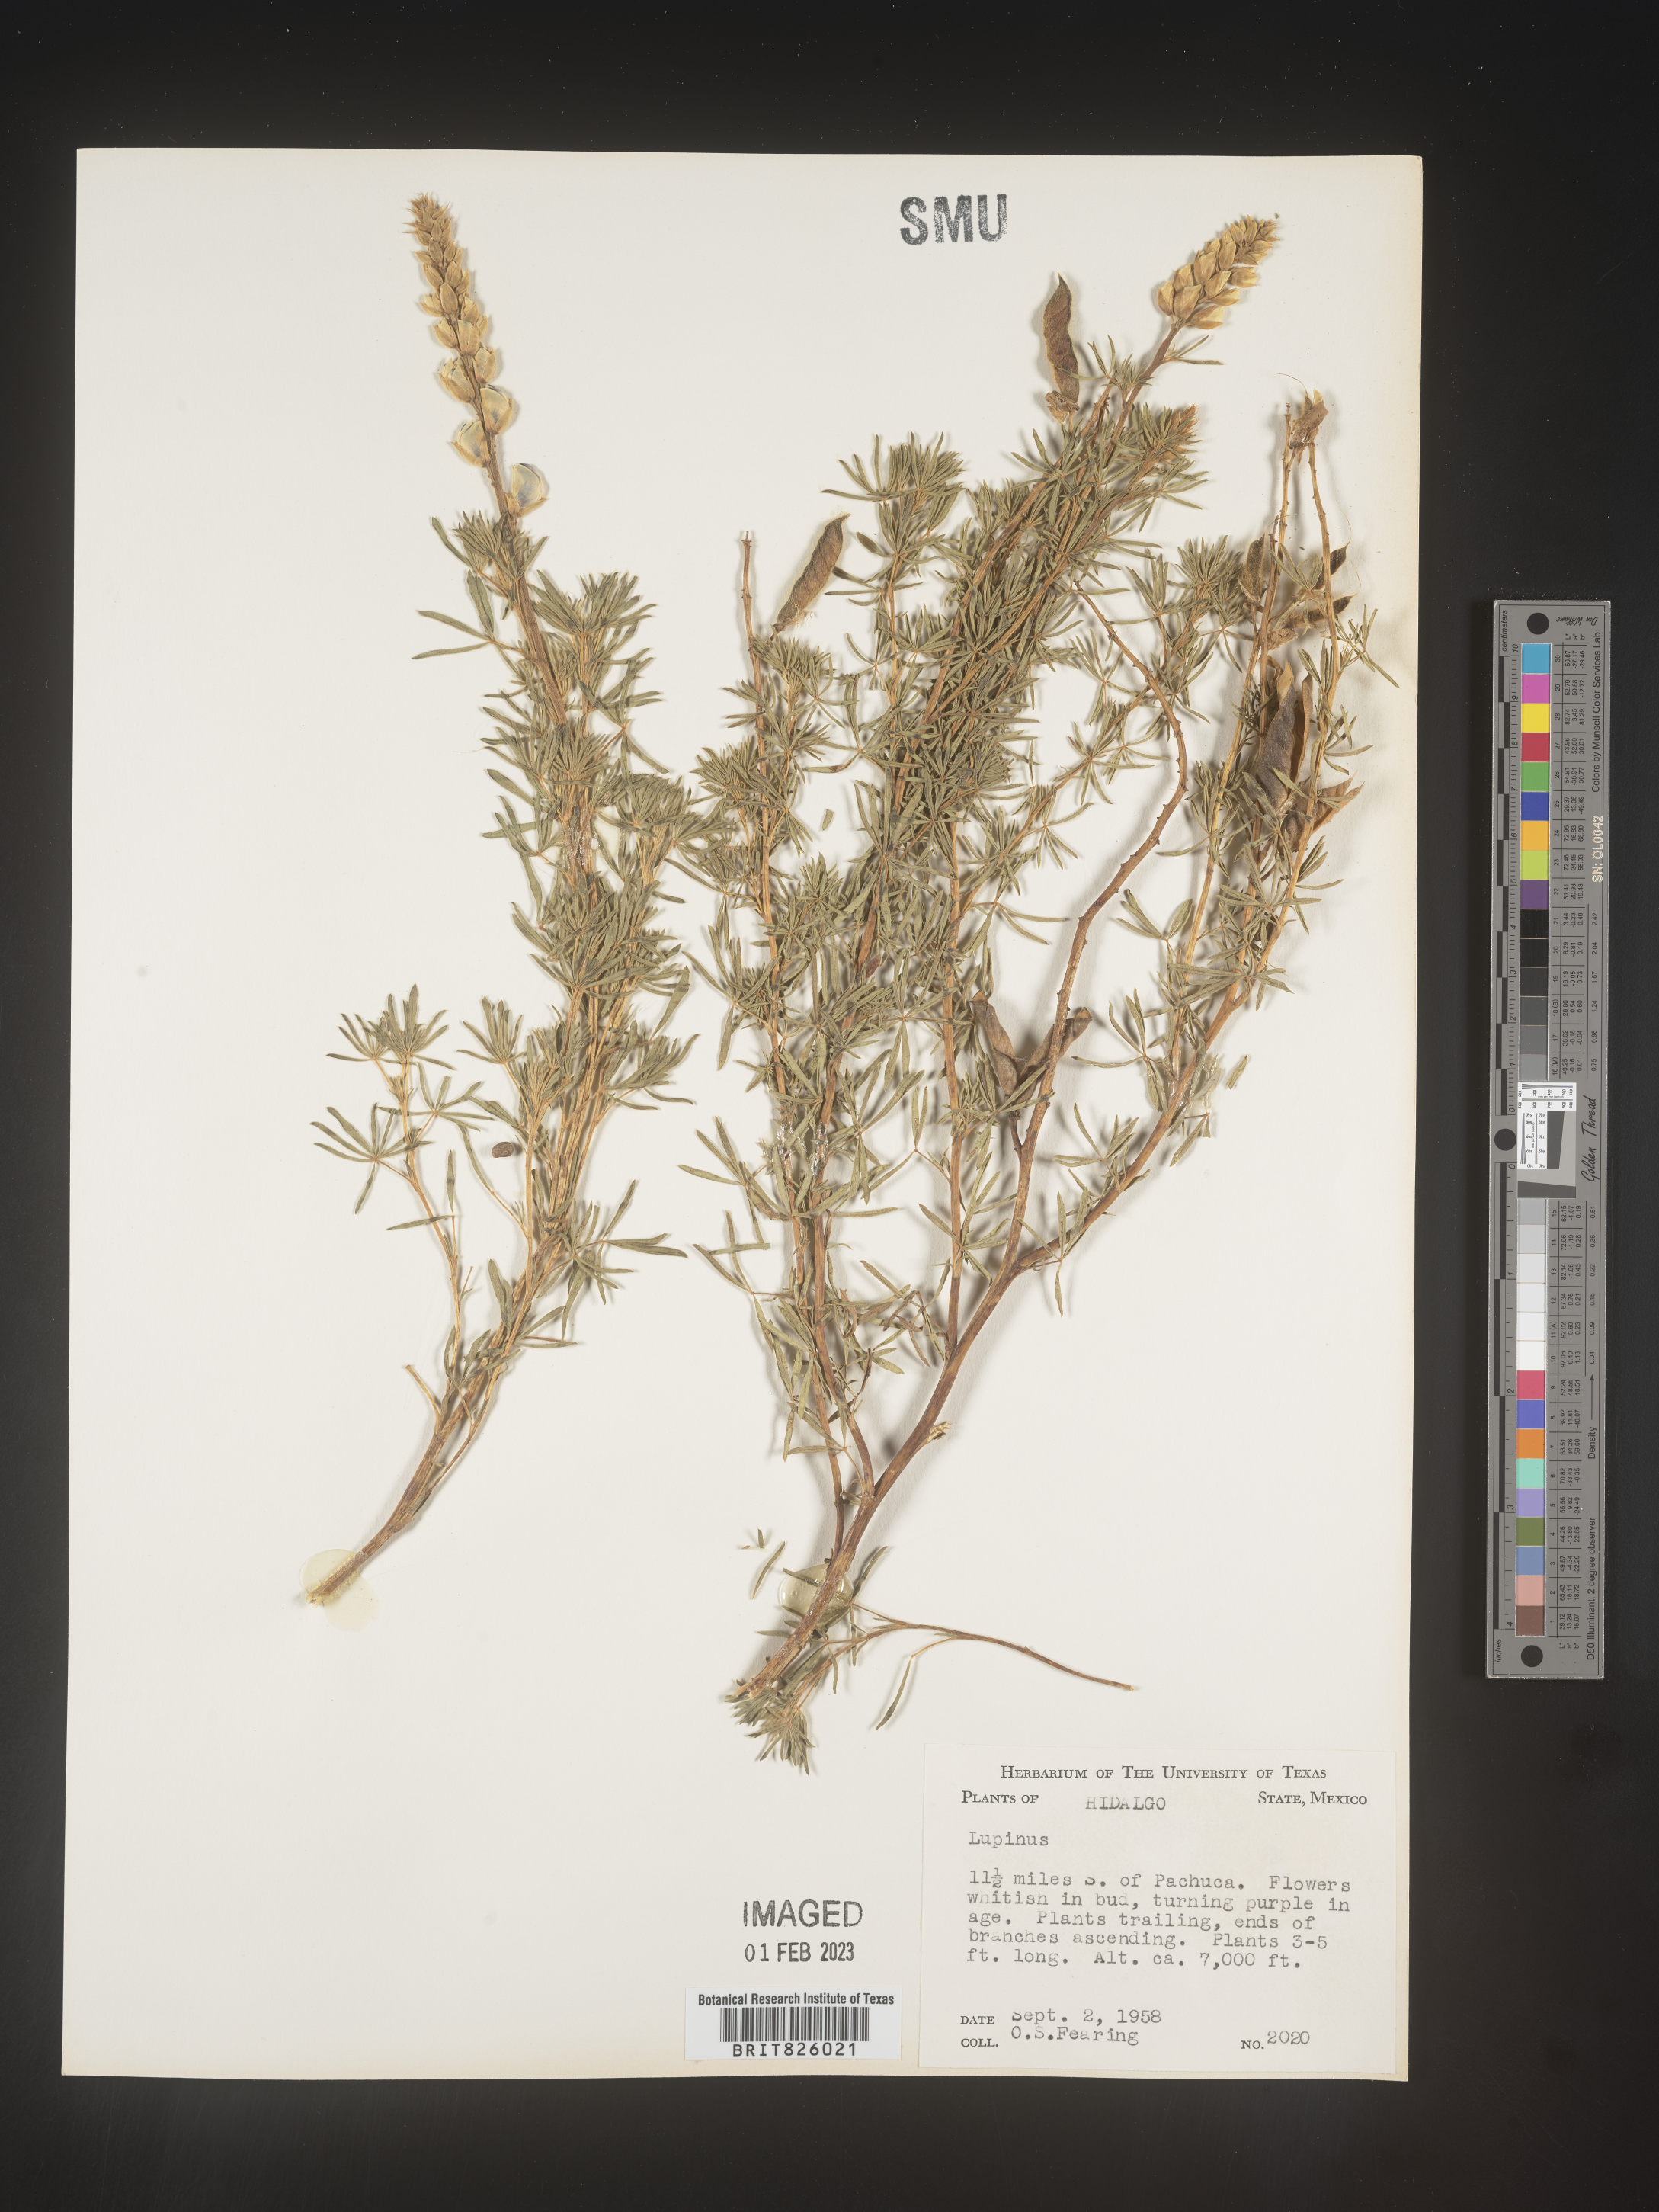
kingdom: Plantae
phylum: Tracheophyta
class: Magnoliopsida
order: Fabales
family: Fabaceae
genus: Lupinus
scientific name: Lupinus
